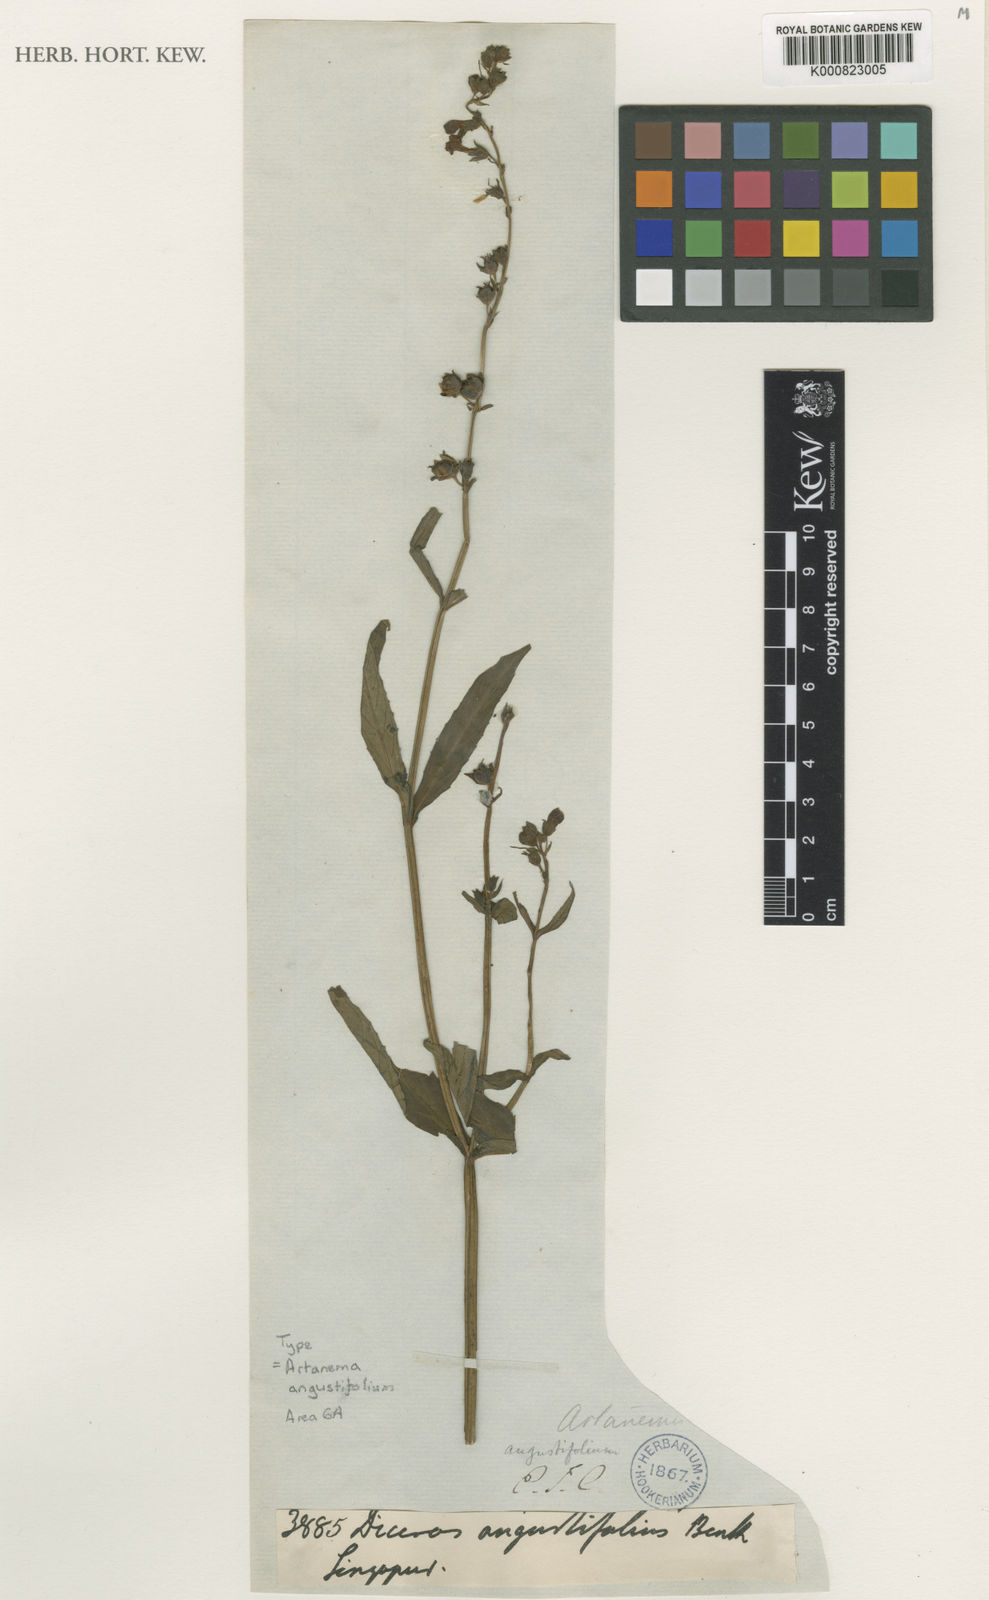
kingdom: Plantae
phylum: Tracheophyta
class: Magnoliopsida
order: Lamiales
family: Linderniaceae
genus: Artanema
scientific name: Artanema angustifolium
